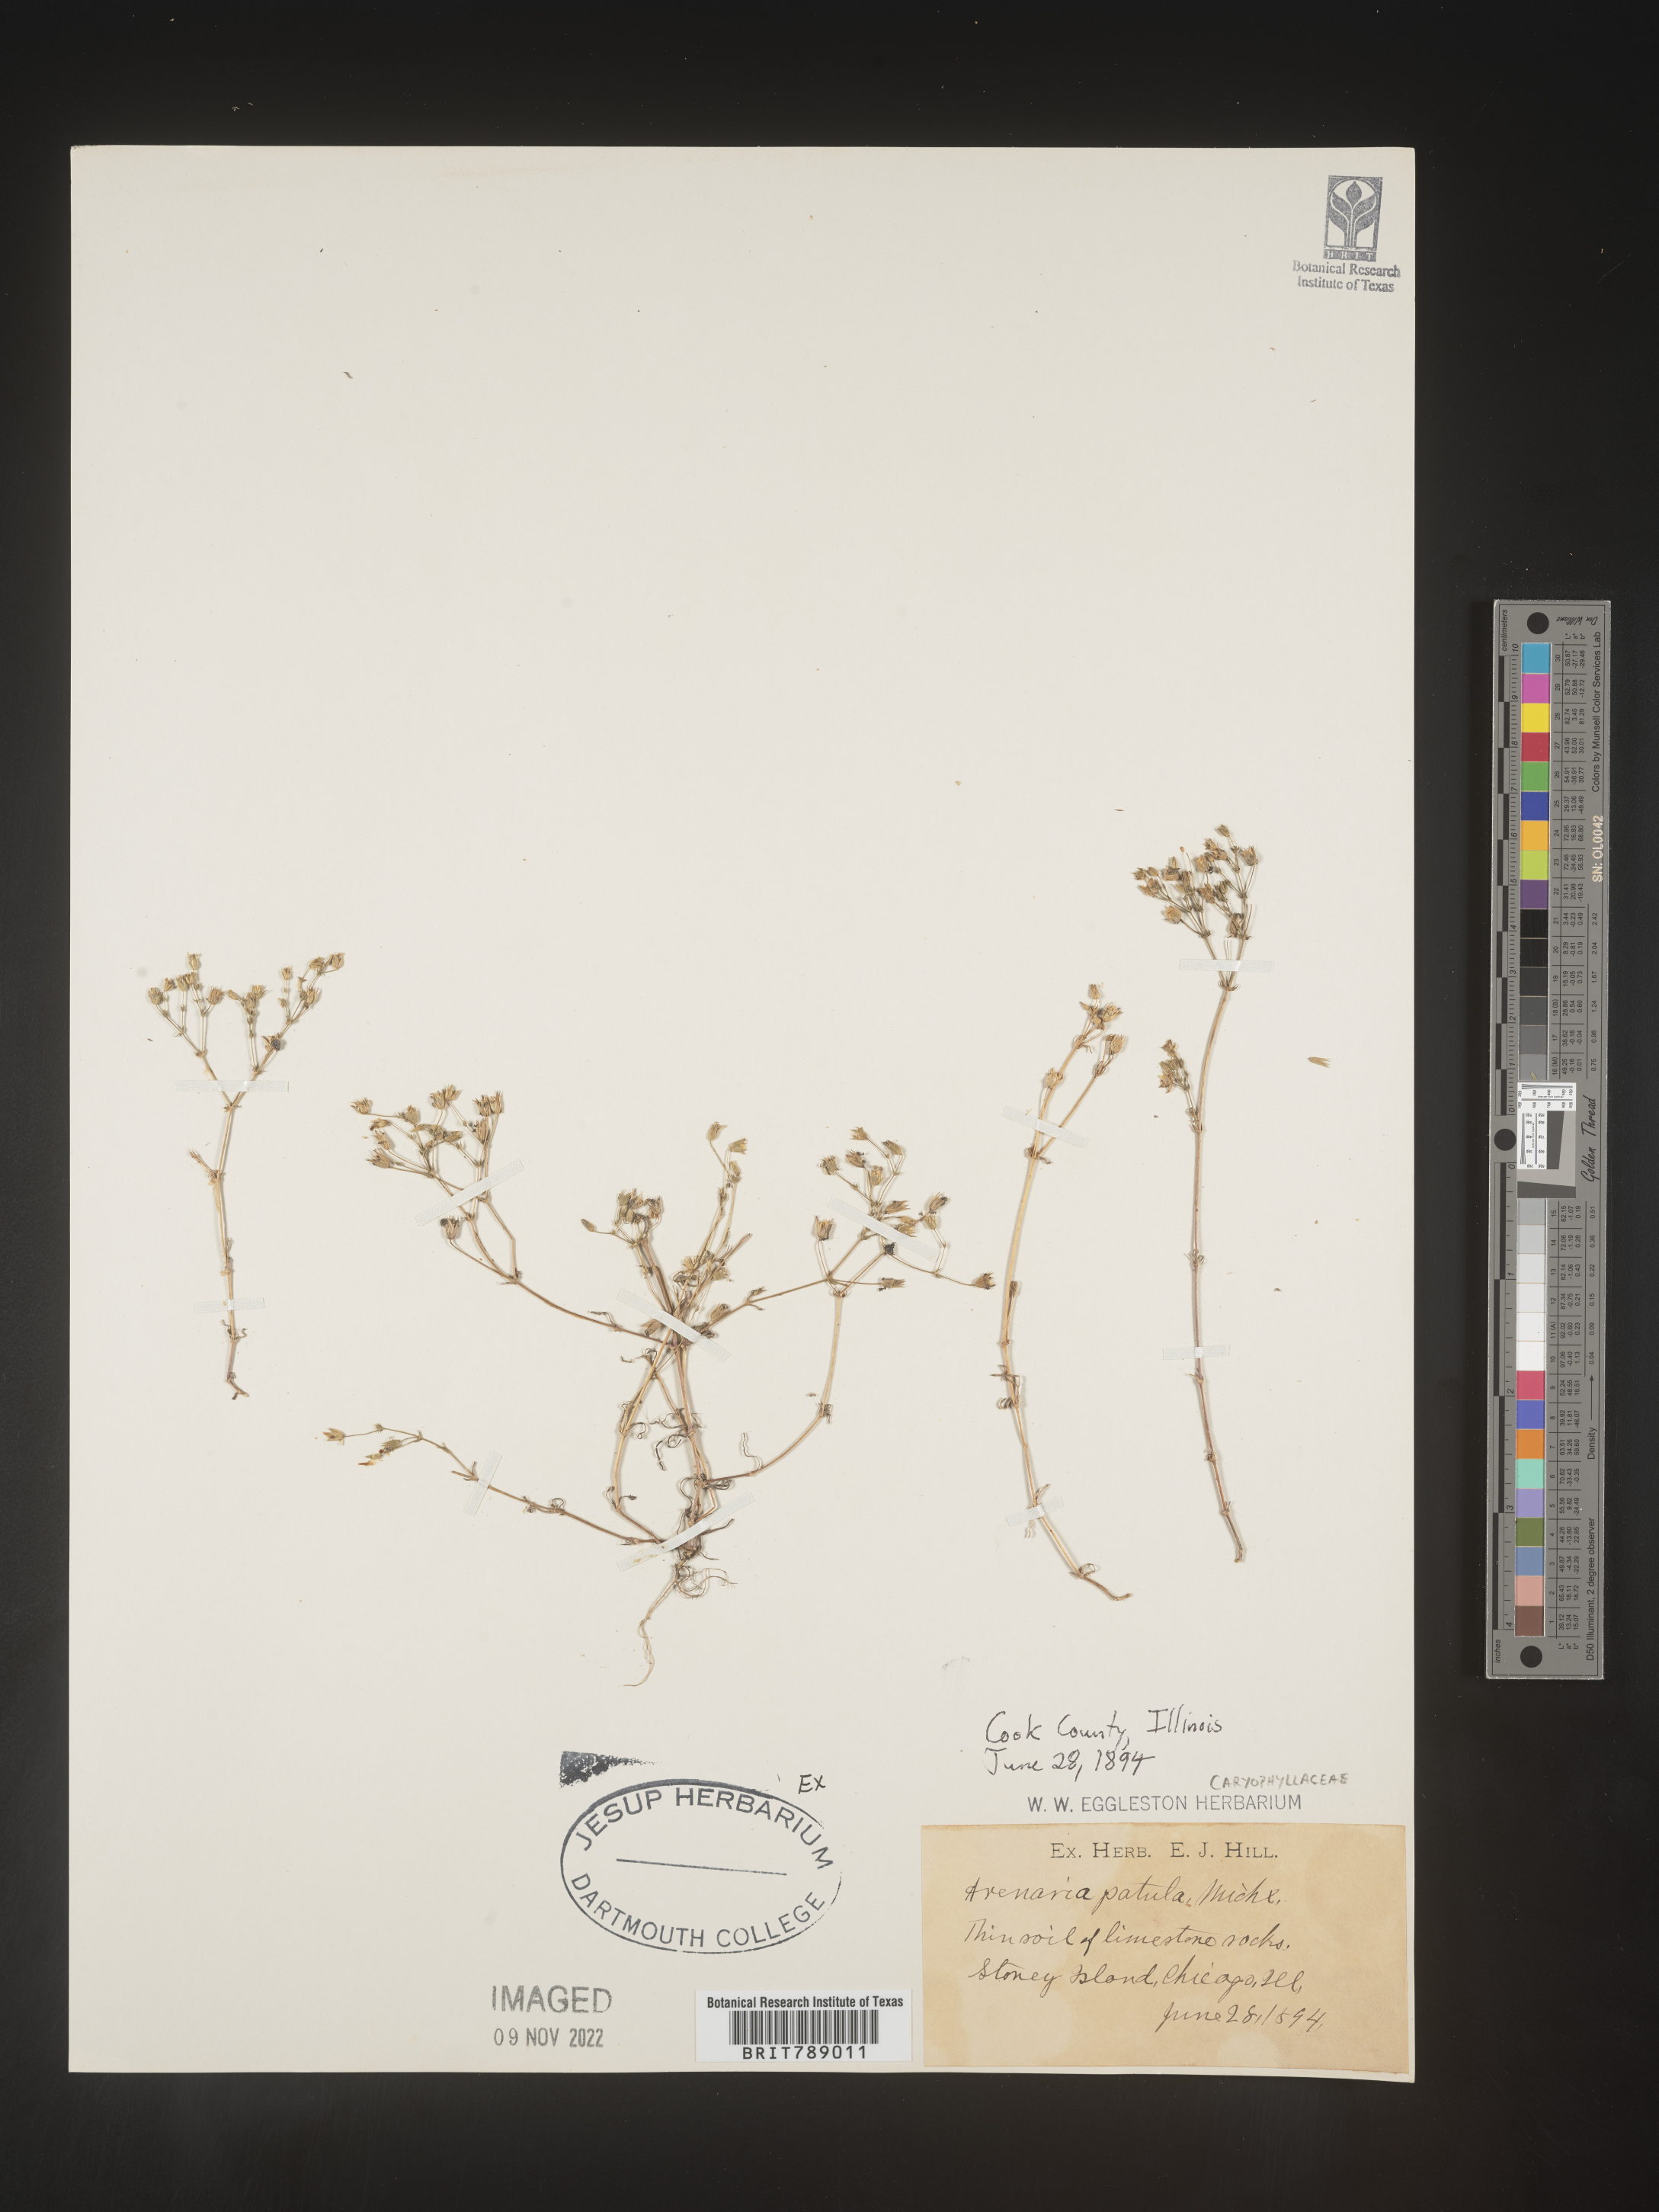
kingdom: Plantae
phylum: Tracheophyta
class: Magnoliopsida
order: Caryophyllales
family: Caryophyllaceae
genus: Mononeuria
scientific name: Mononeuria patula
